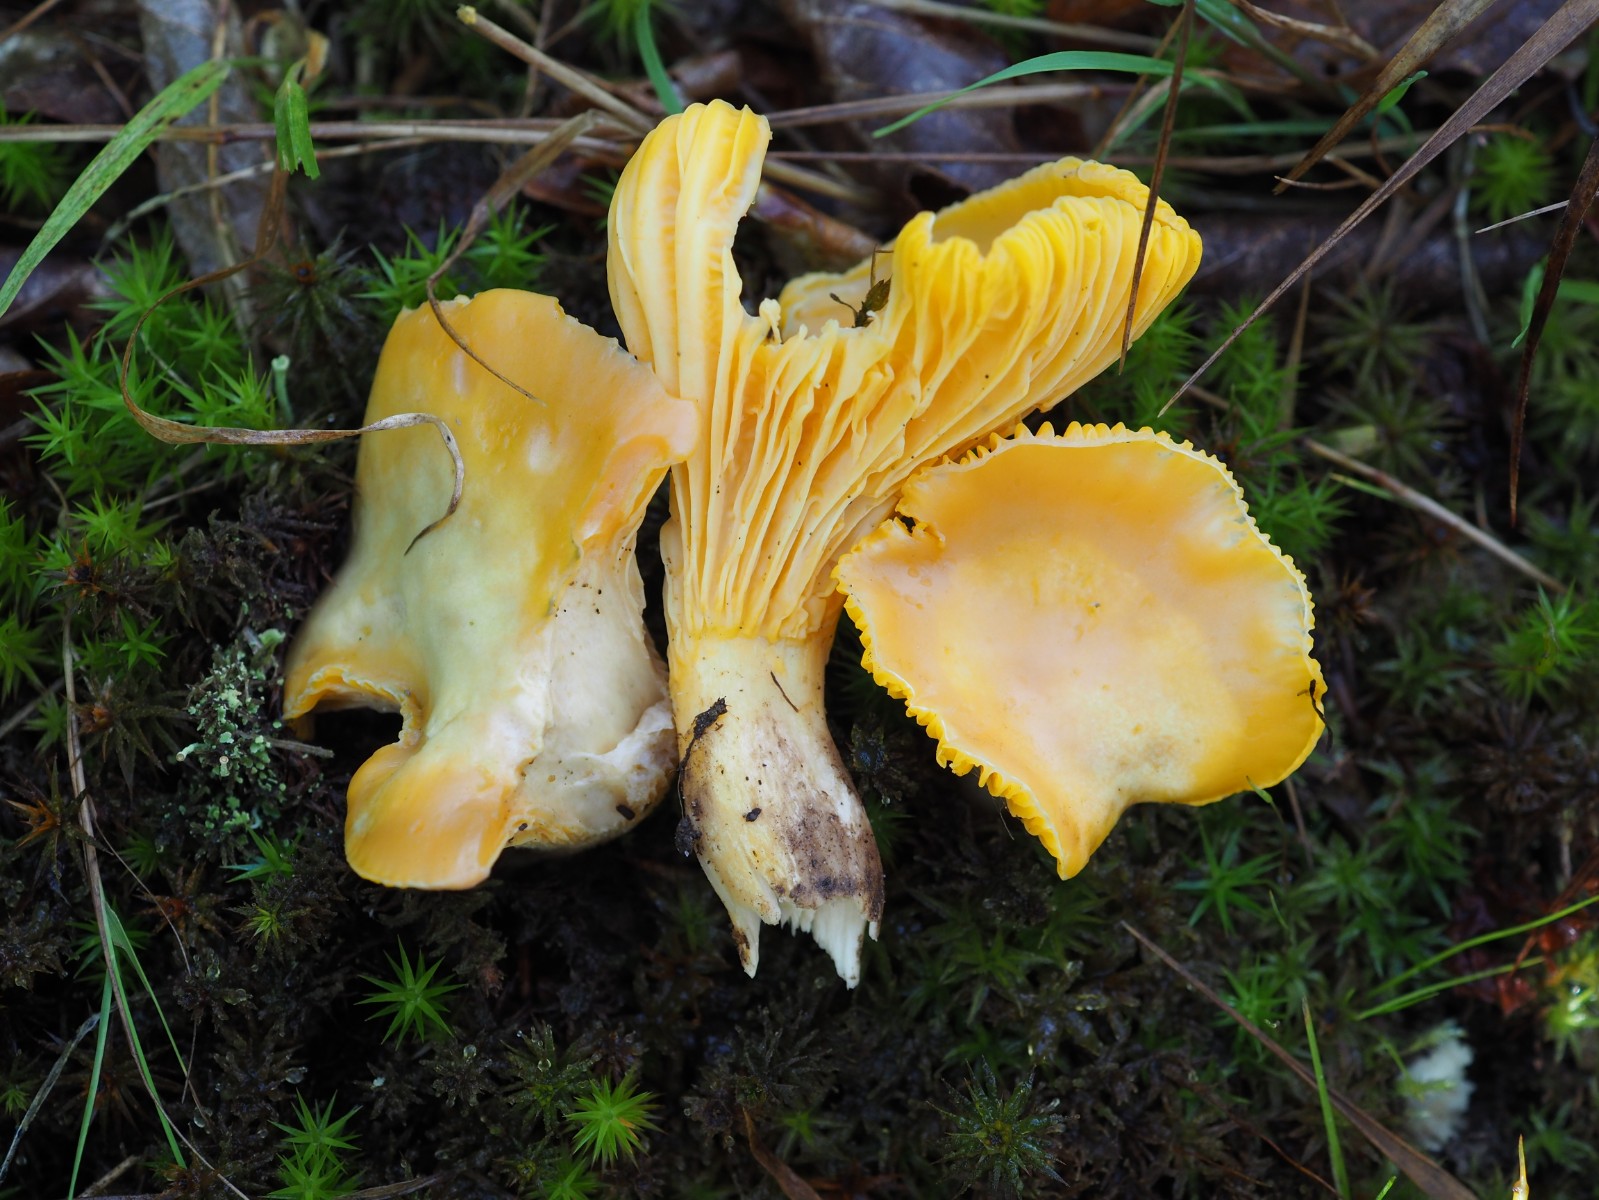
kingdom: Fungi
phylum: Basidiomycota
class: Agaricomycetes
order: Cantharellales
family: Hydnaceae
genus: Cantharellus
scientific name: Cantharellus pallens
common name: bleg kantarel
